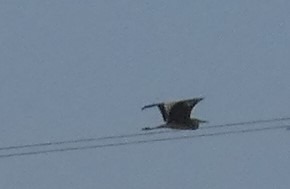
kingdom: Animalia
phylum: Chordata
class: Aves
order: Pelecaniformes
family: Ardeidae
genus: Ardea
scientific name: Ardea cinerea
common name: Fiskehejre
